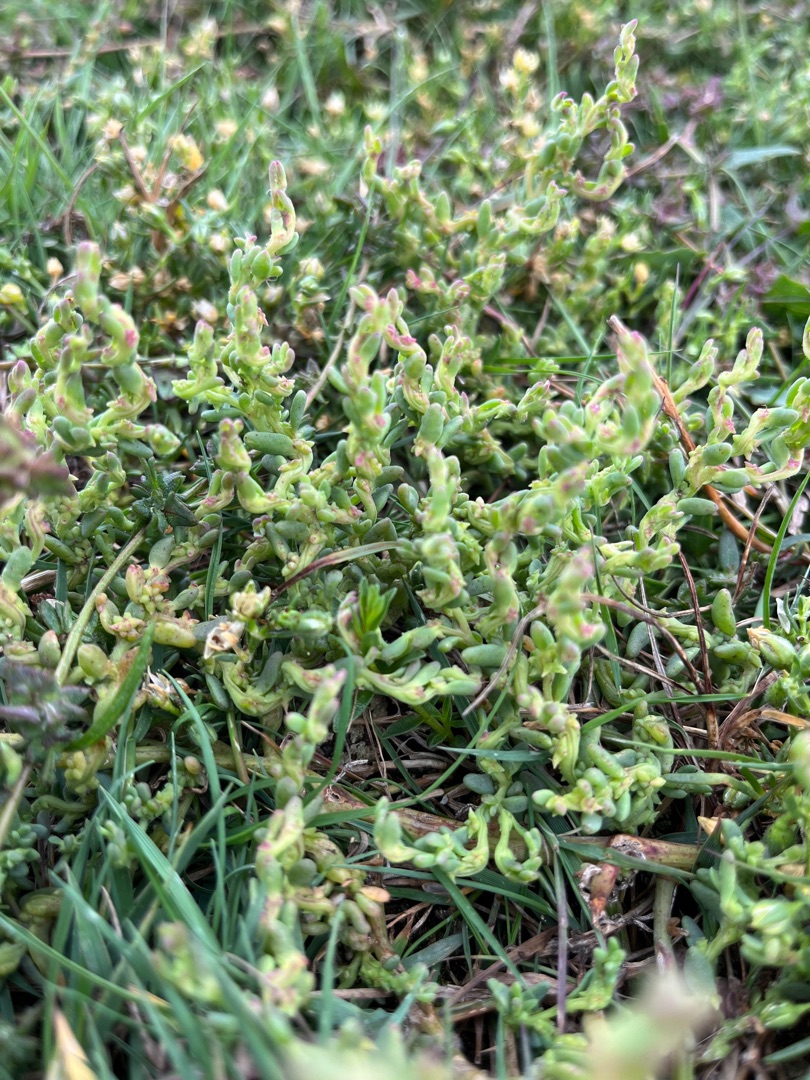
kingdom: Plantae
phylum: Tracheophyta
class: Magnoliopsida
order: Caryophyllales
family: Amaranthaceae
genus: Spirobassia
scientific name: Spirobassia hirsuta
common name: Tangurt
